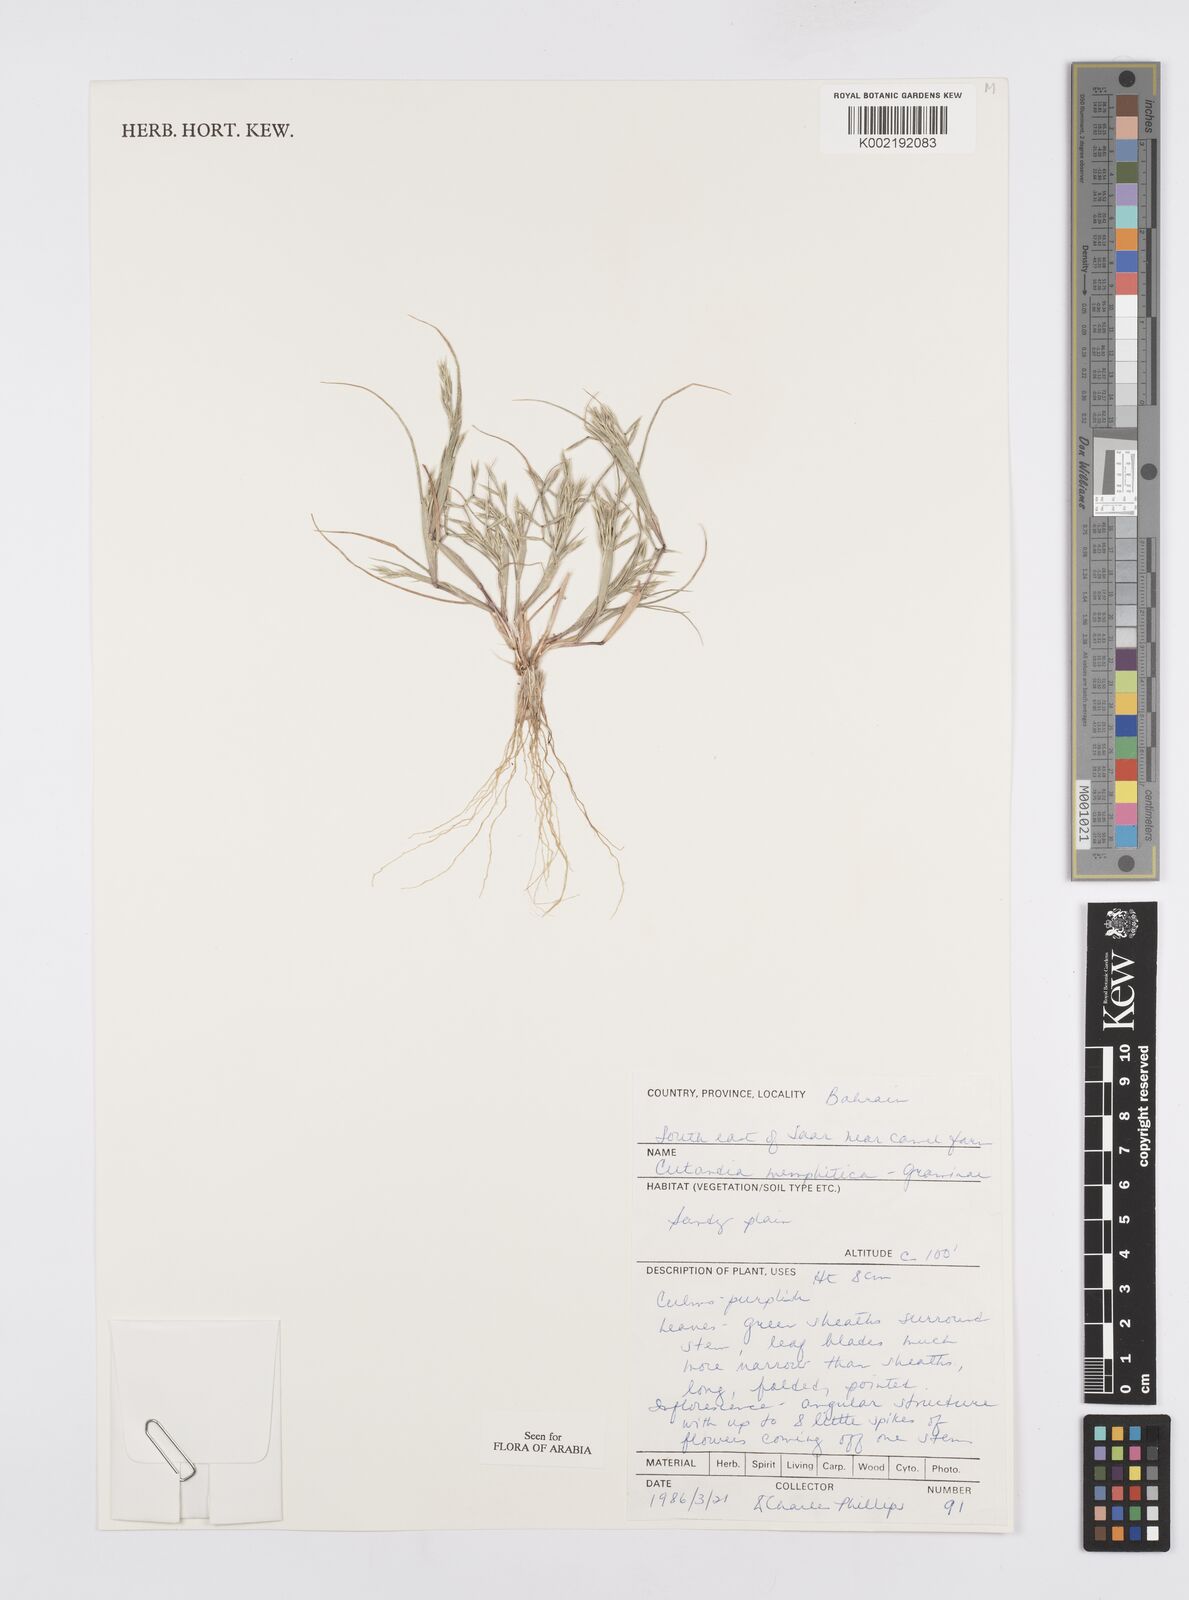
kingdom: Plantae
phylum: Tracheophyta
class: Liliopsida
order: Poales
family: Poaceae
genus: Cutandia
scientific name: Cutandia memphitica
